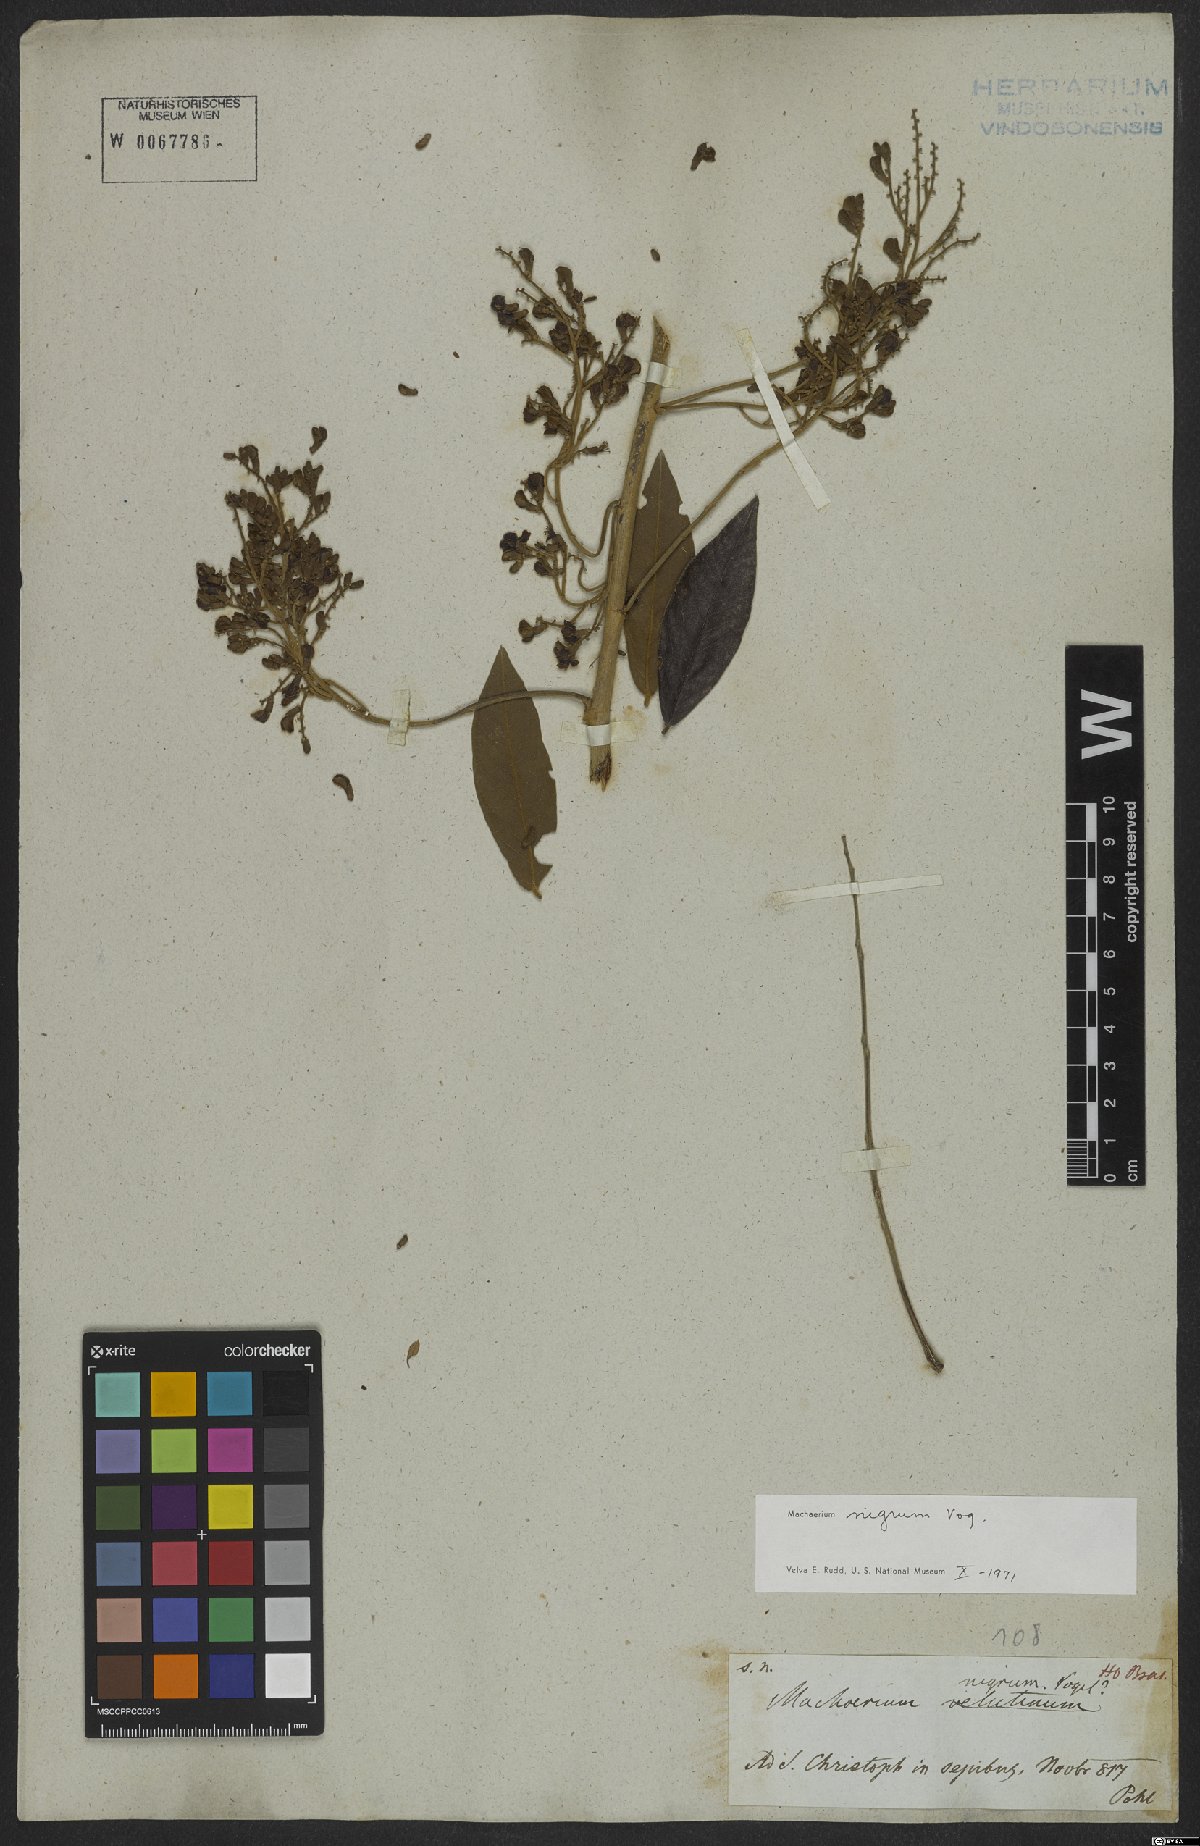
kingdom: Plantae
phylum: Tracheophyta
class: Magnoliopsida
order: Fabales
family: Fabaceae
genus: Machaerium
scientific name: Machaerium nigrum
